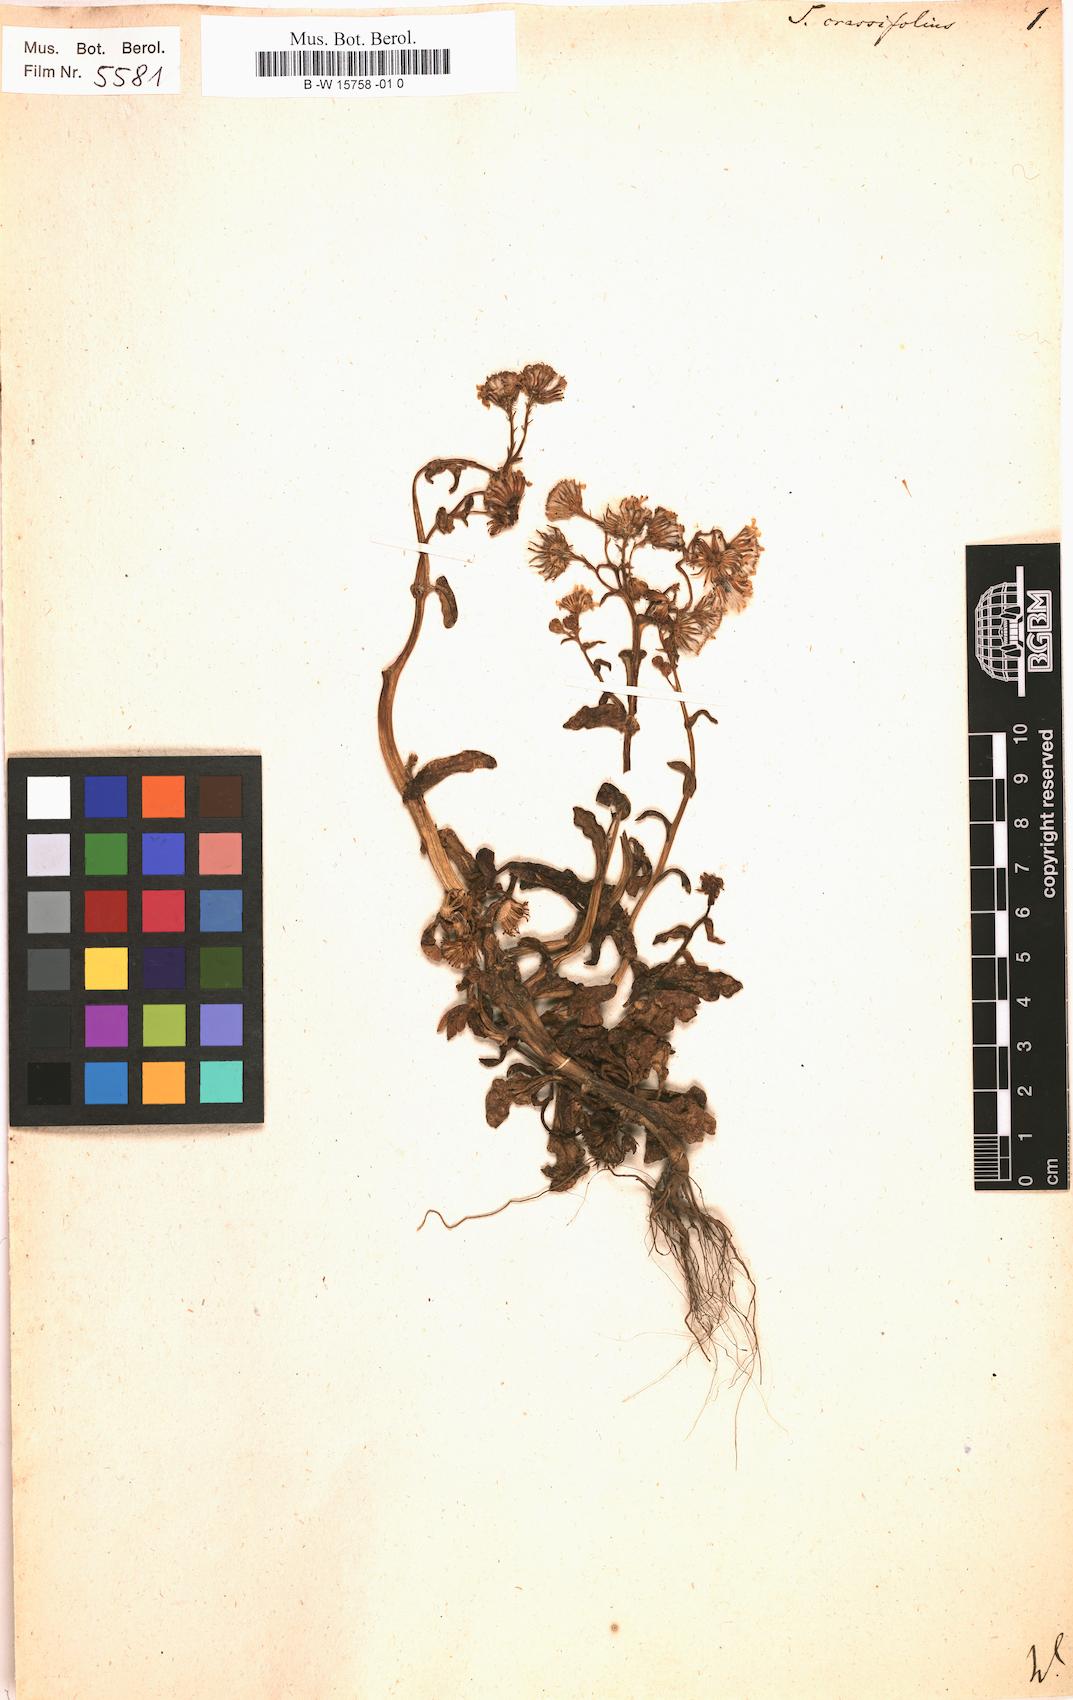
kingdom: Plantae
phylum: Tracheophyta
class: Magnoliopsida
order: Asterales
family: Asteraceae
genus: Senecio
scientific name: Senecio leucanthemifolius
